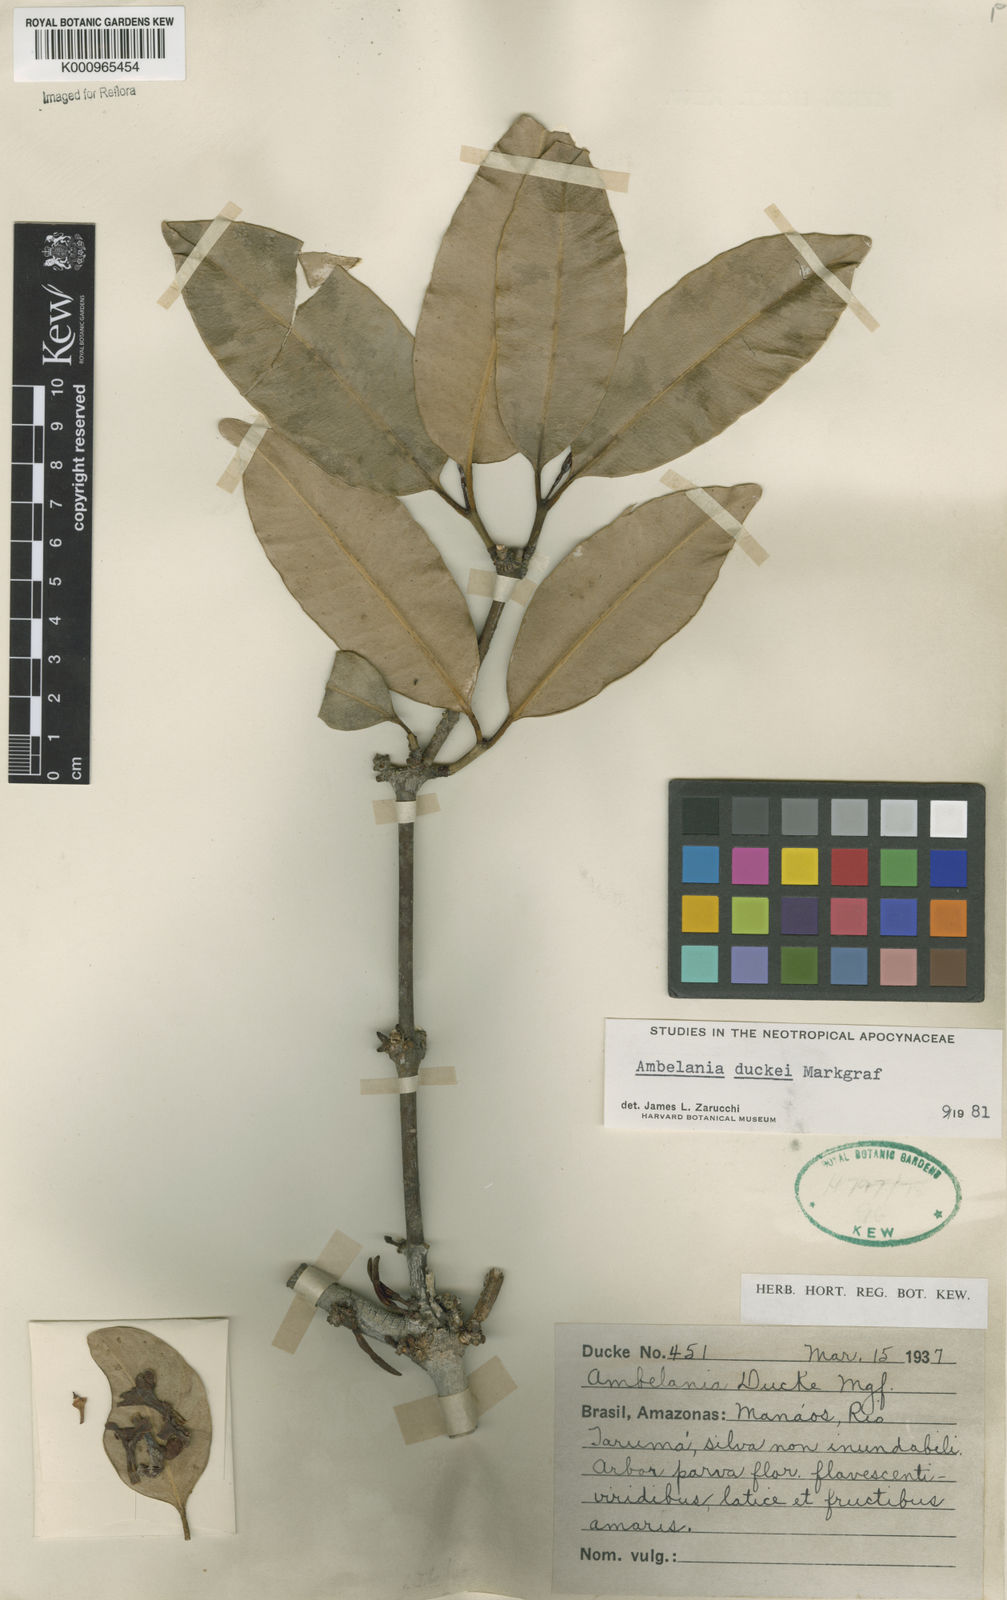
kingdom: Plantae
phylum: Tracheophyta
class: Magnoliopsida
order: Gentianales
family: Apocynaceae
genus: Ambelania
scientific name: Ambelania duckei
